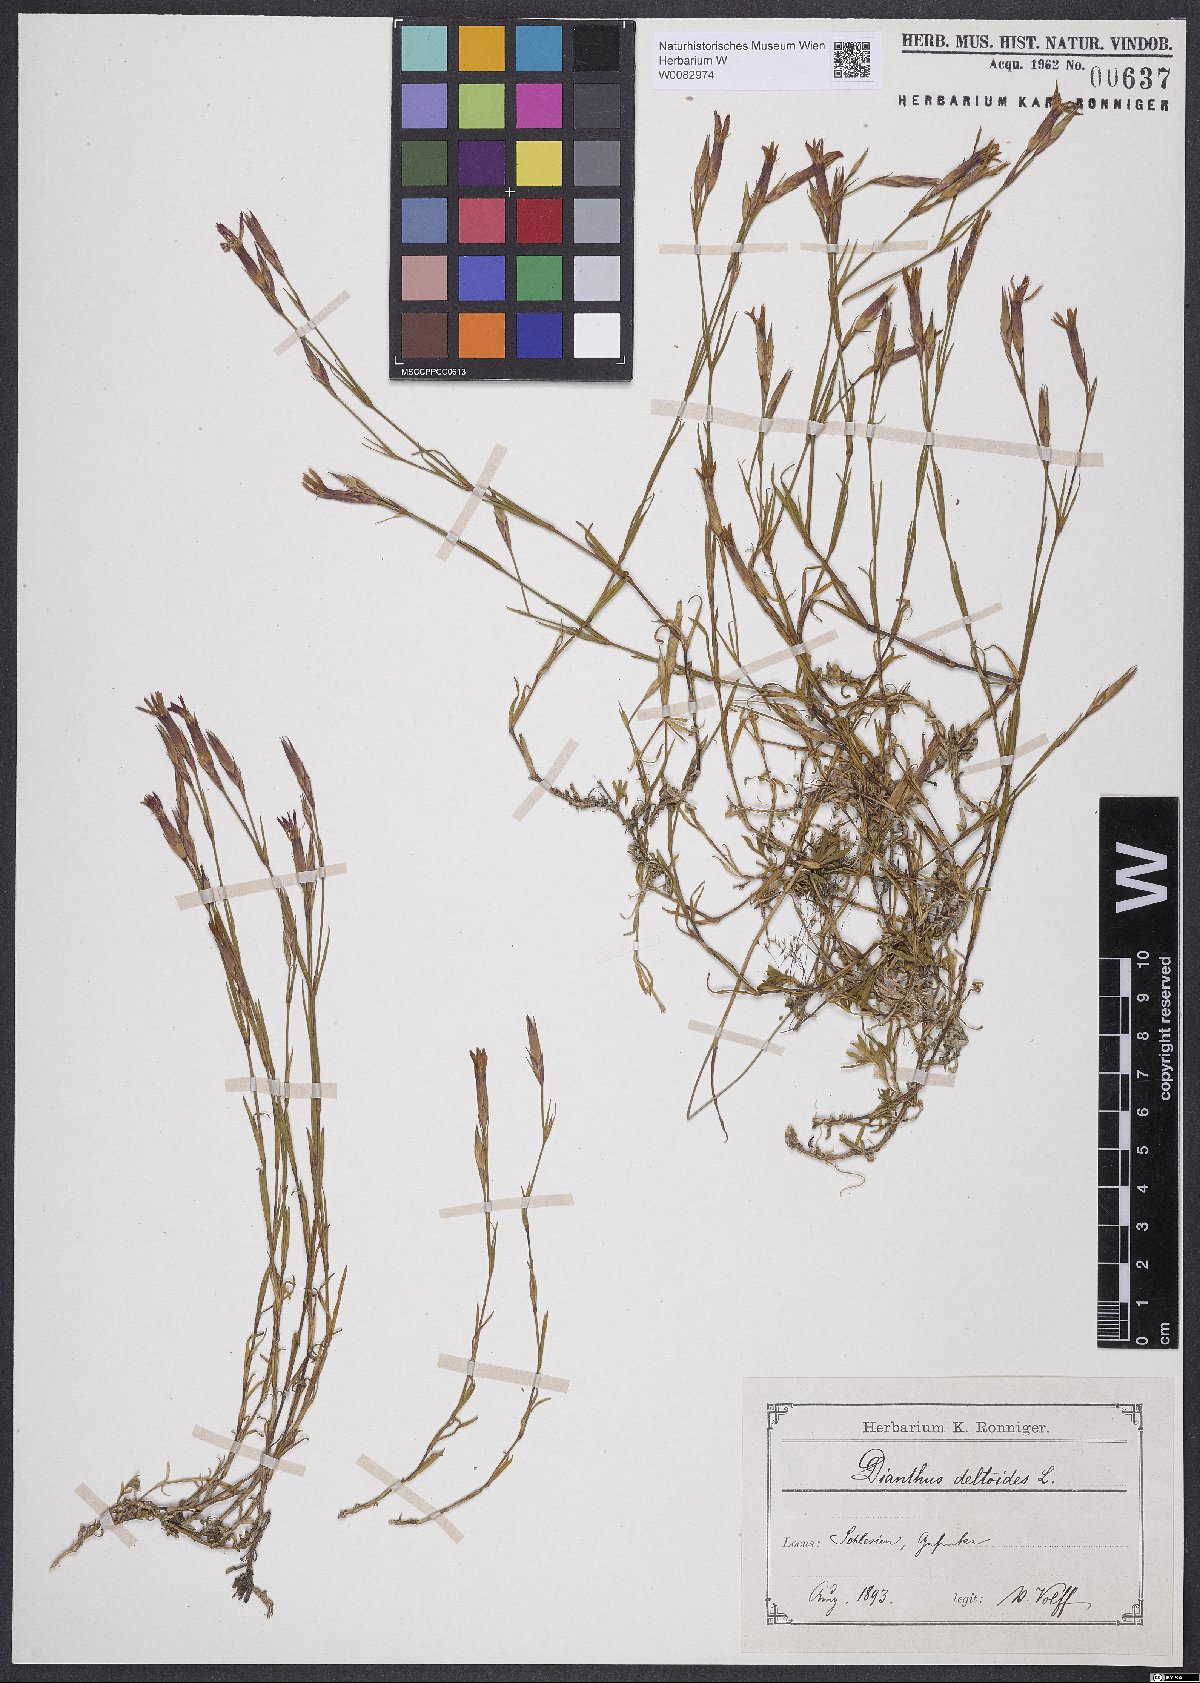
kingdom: Plantae
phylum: Tracheophyta
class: Magnoliopsida
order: Caryophyllales
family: Caryophyllaceae
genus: Dianthus
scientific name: Dianthus deltoides
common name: Maiden pink
